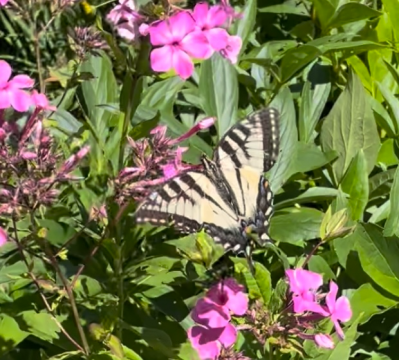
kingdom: Animalia
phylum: Arthropoda
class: Insecta
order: Lepidoptera
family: Papilionidae
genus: Pterourus
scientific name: Pterourus canadensis
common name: Canadian Tiger Swallowtail
